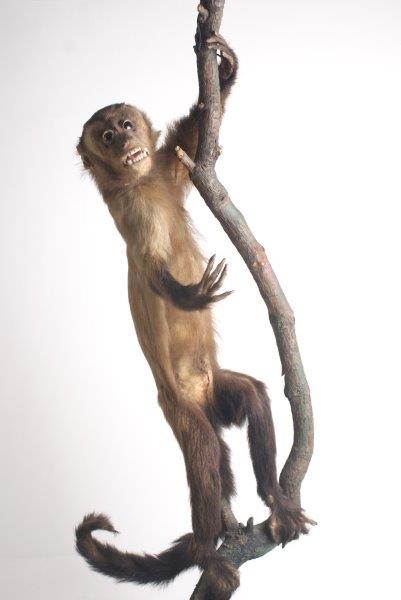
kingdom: Animalia
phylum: Chordata
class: Mammalia
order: Primates
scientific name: Primates
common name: Primates
